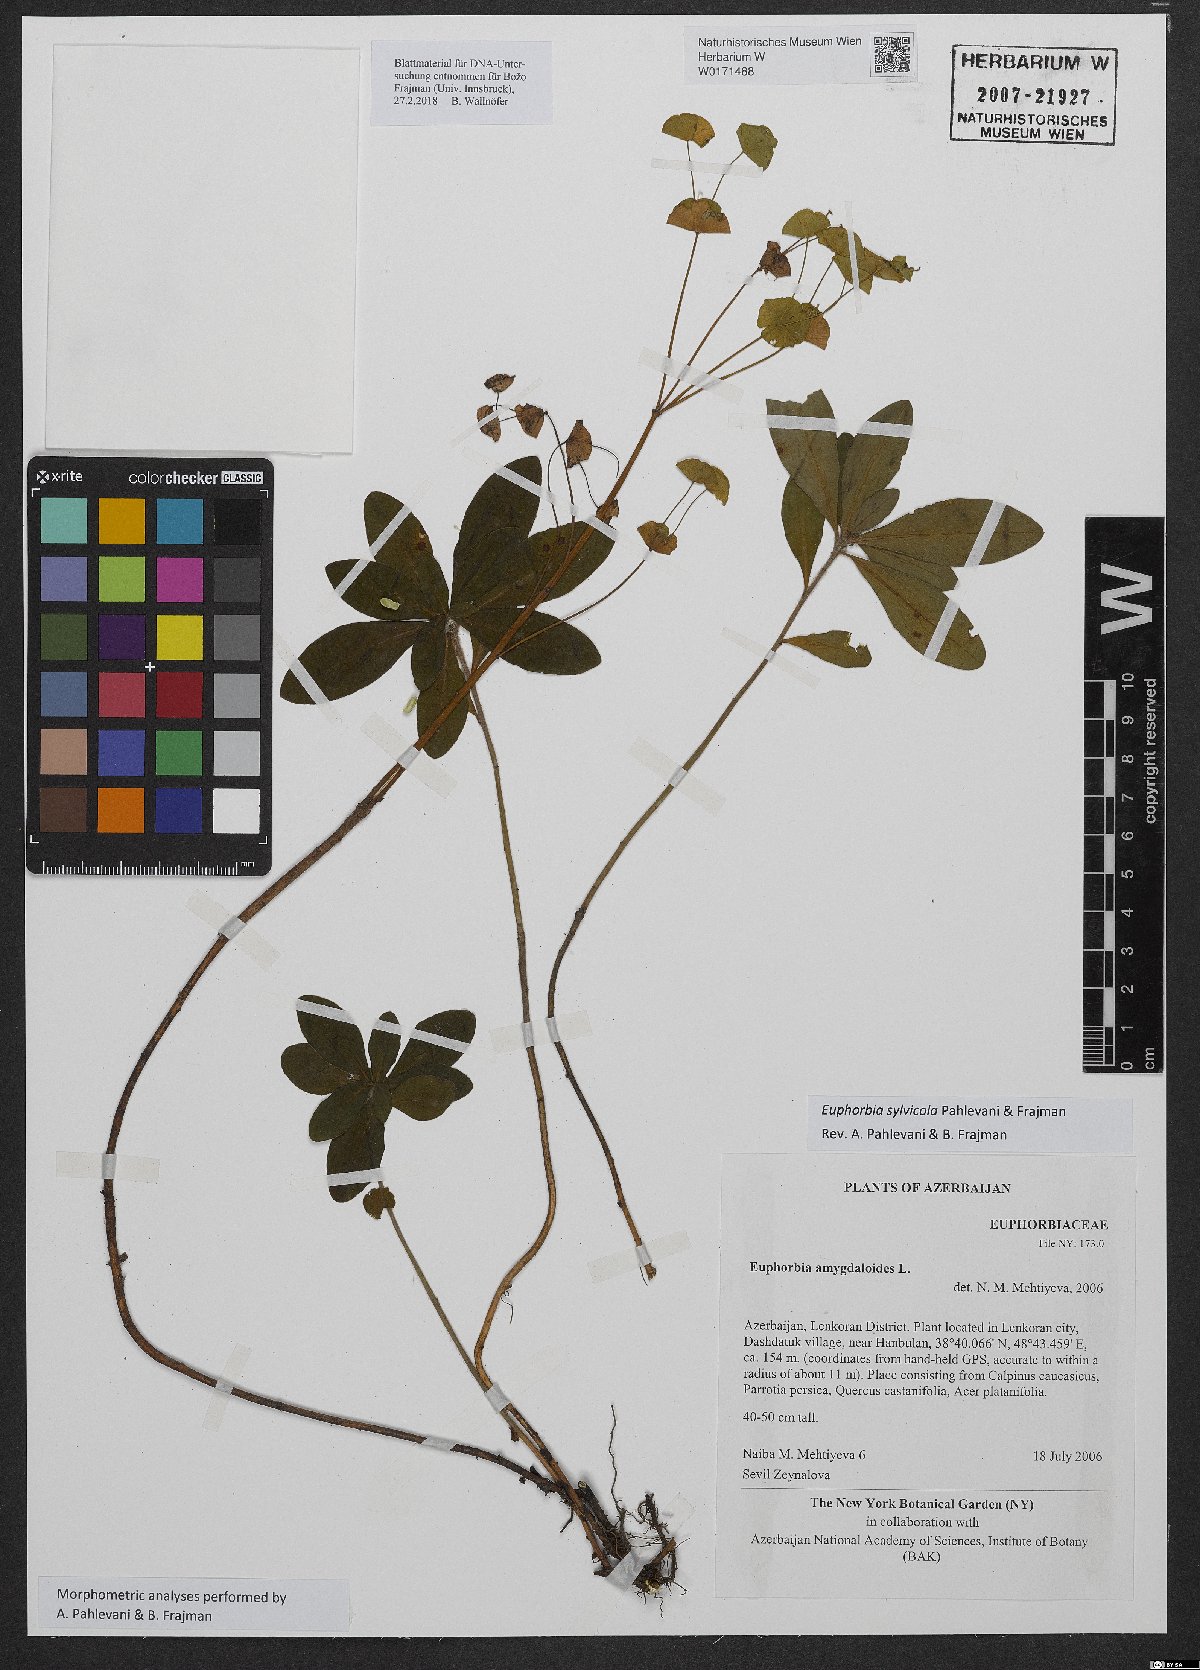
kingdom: Plantae
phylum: Tracheophyta
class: Magnoliopsida
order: Malpighiales
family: Euphorbiaceae
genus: Euphorbia
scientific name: Euphorbia juttae
